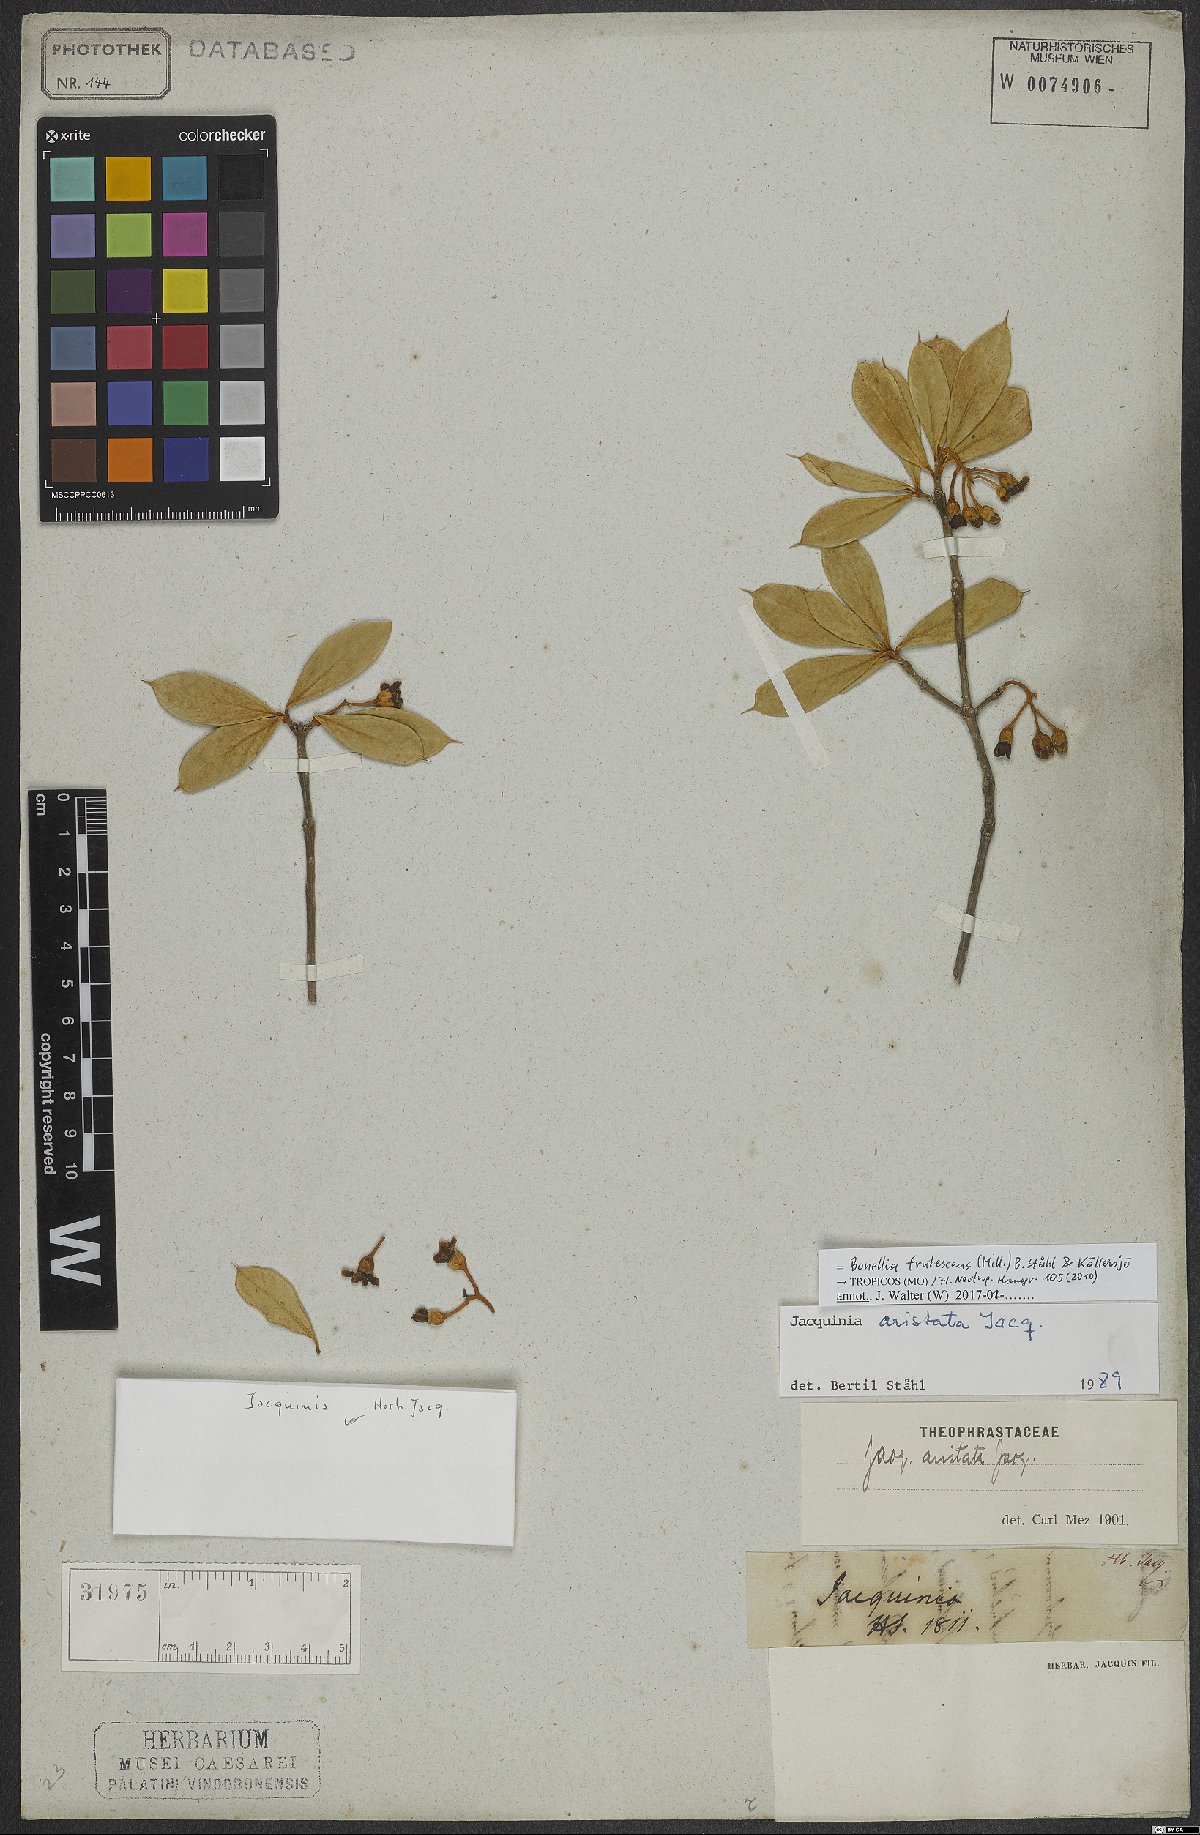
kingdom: Plantae
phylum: Tracheophyta
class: Magnoliopsida
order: Ericales
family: Primulaceae
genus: Bonellia
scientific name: Bonellia frutescens
